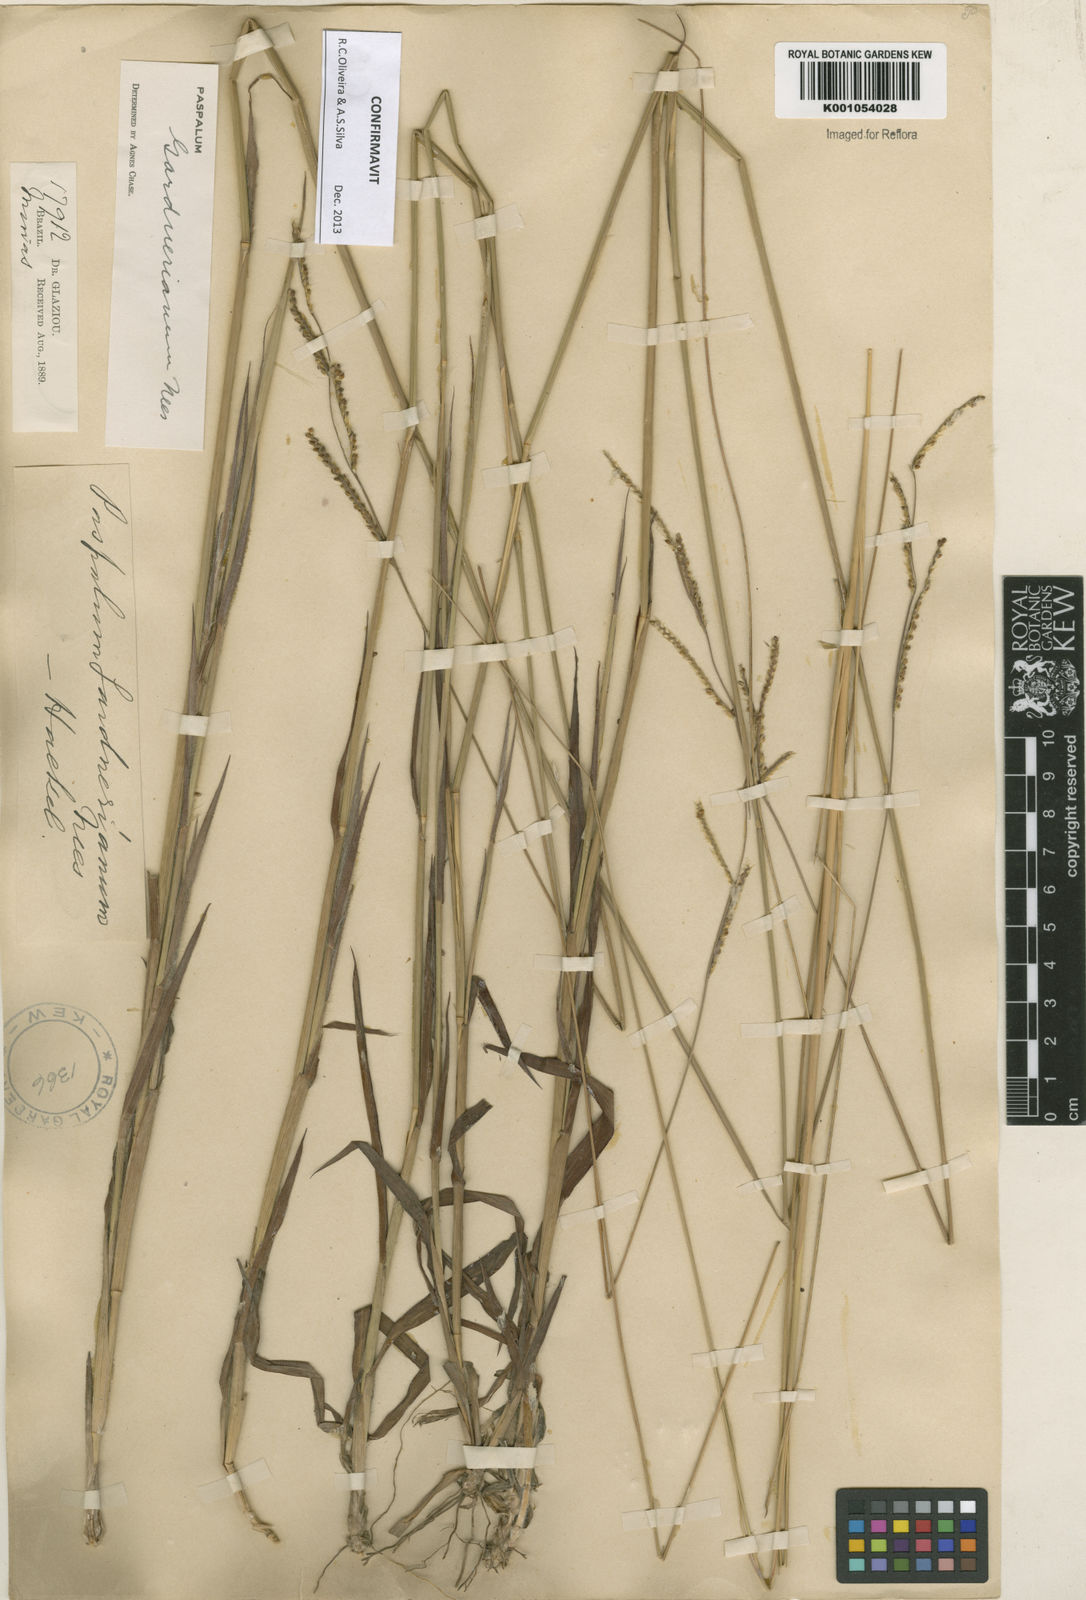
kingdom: Plantae
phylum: Tracheophyta
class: Liliopsida
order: Poales
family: Poaceae
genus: Paspalum
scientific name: Paspalum gardnerianum
